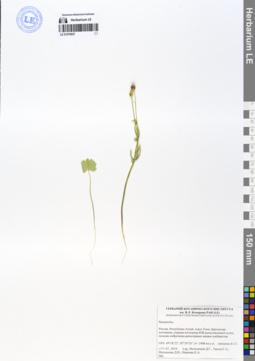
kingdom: Plantae
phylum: Tracheophyta
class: Magnoliopsida
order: Ranunculales
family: Ranunculaceae
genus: Ranunculus
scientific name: Ranunculus monophyllus
